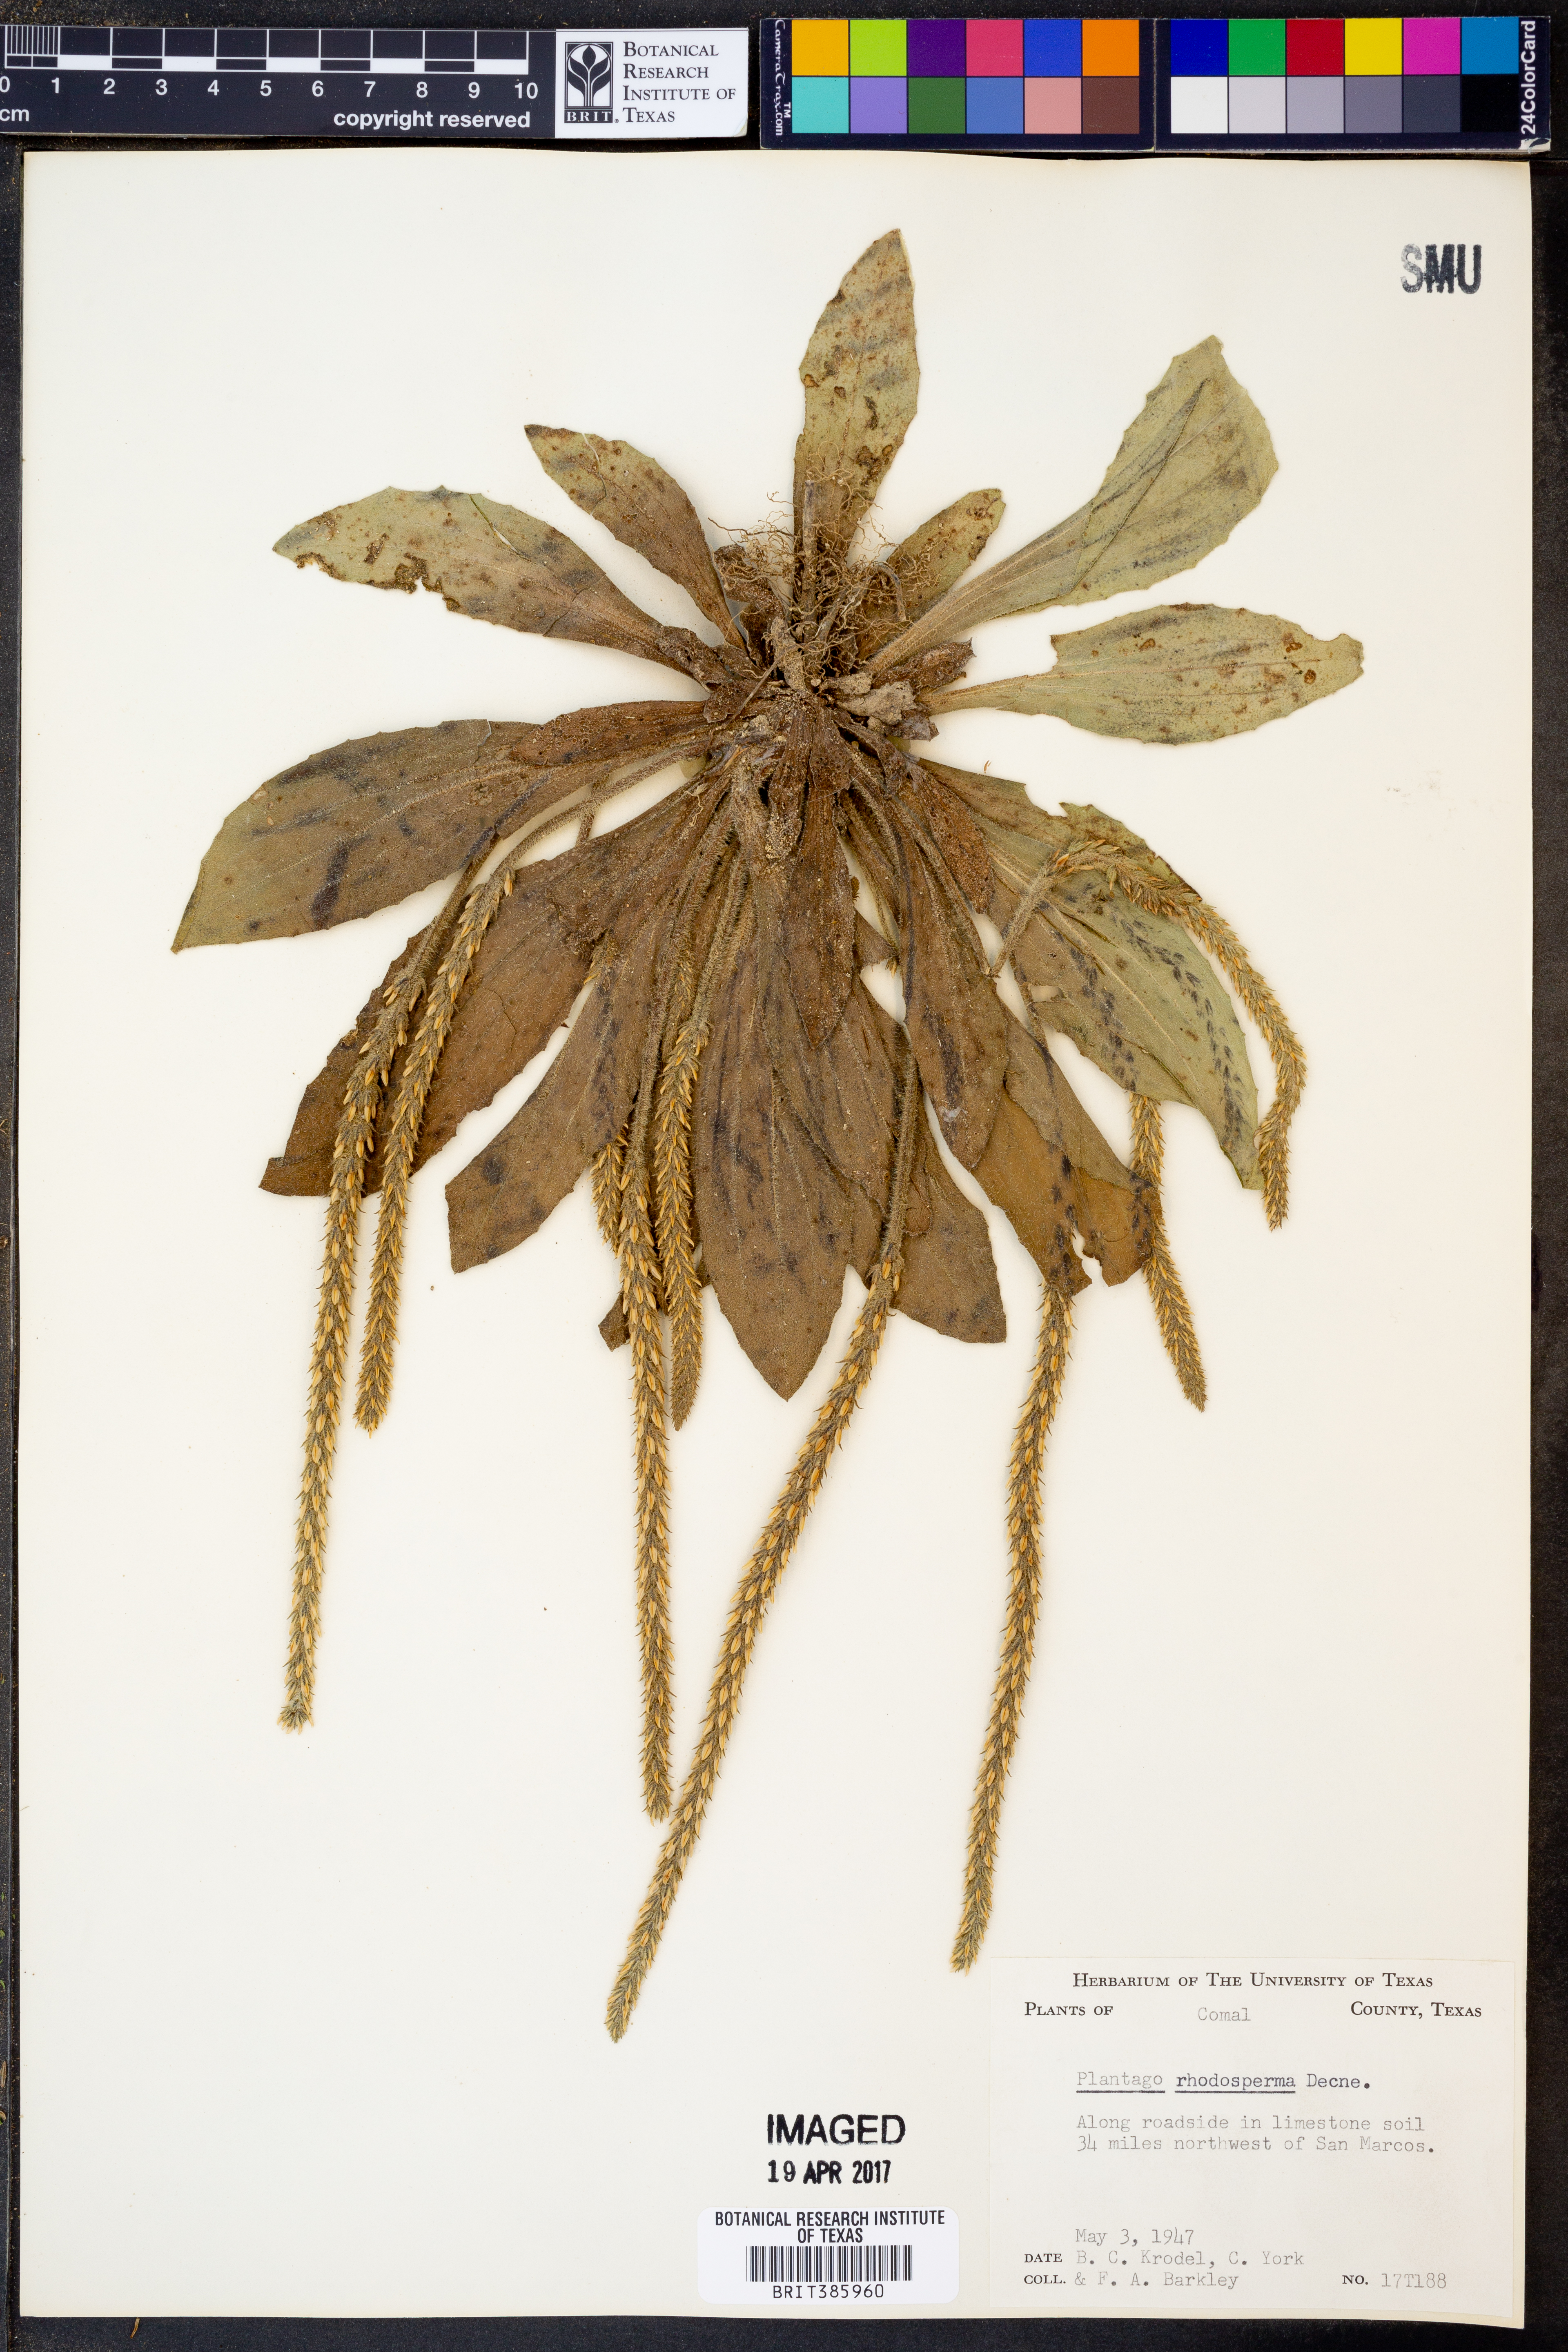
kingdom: Plantae
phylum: Tracheophyta
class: Magnoliopsida
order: Lamiales
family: Plantaginaceae
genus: Plantago
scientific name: Plantago rhodosperma
